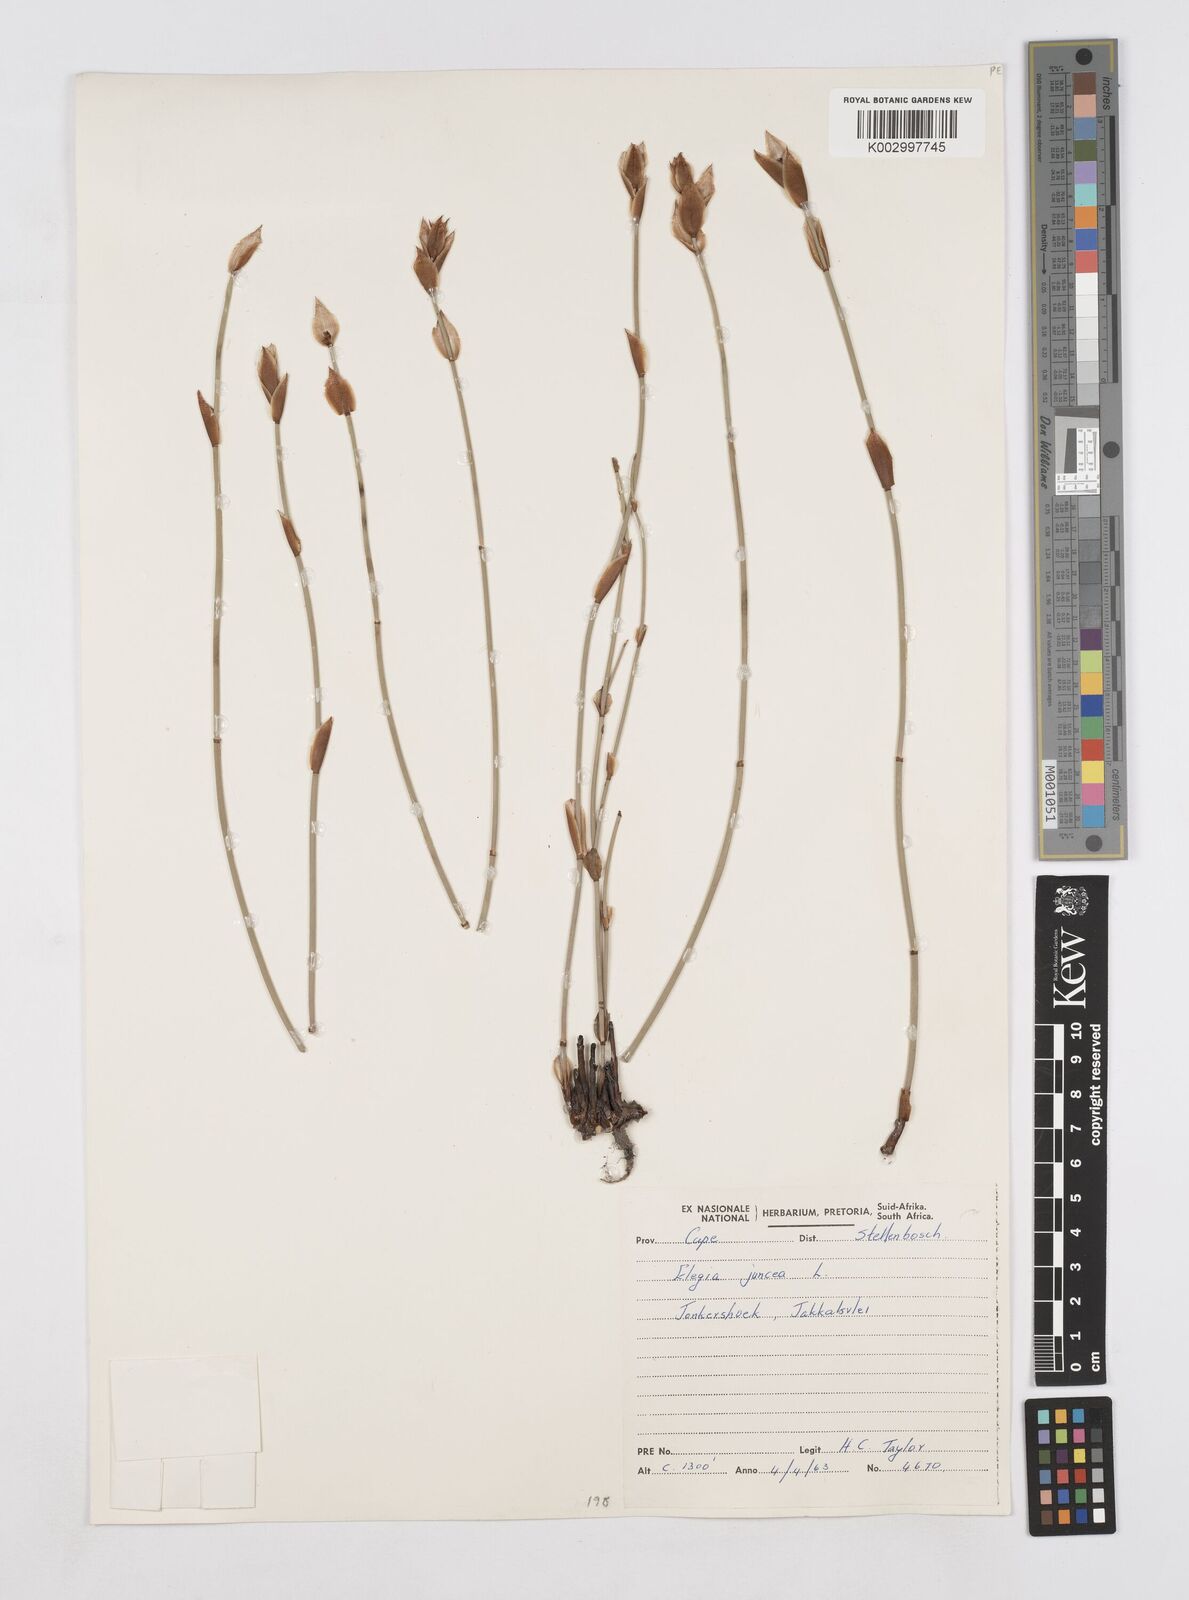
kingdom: Plantae
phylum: Tracheophyta
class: Liliopsida
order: Poales
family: Restionaceae
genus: Elegia
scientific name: Elegia juncea
